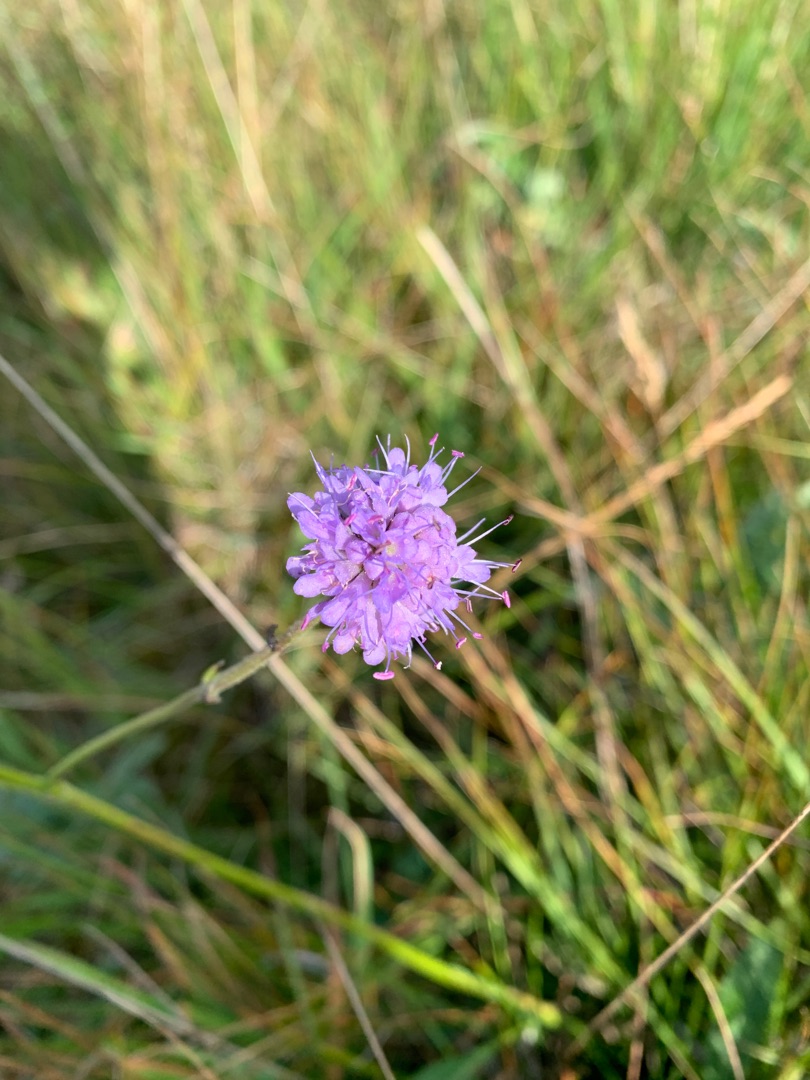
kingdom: Plantae
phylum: Tracheophyta
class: Magnoliopsida
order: Dipsacales
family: Caprifoliaceae
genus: Succisa
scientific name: Succisa pratensis
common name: Djævelsbid
